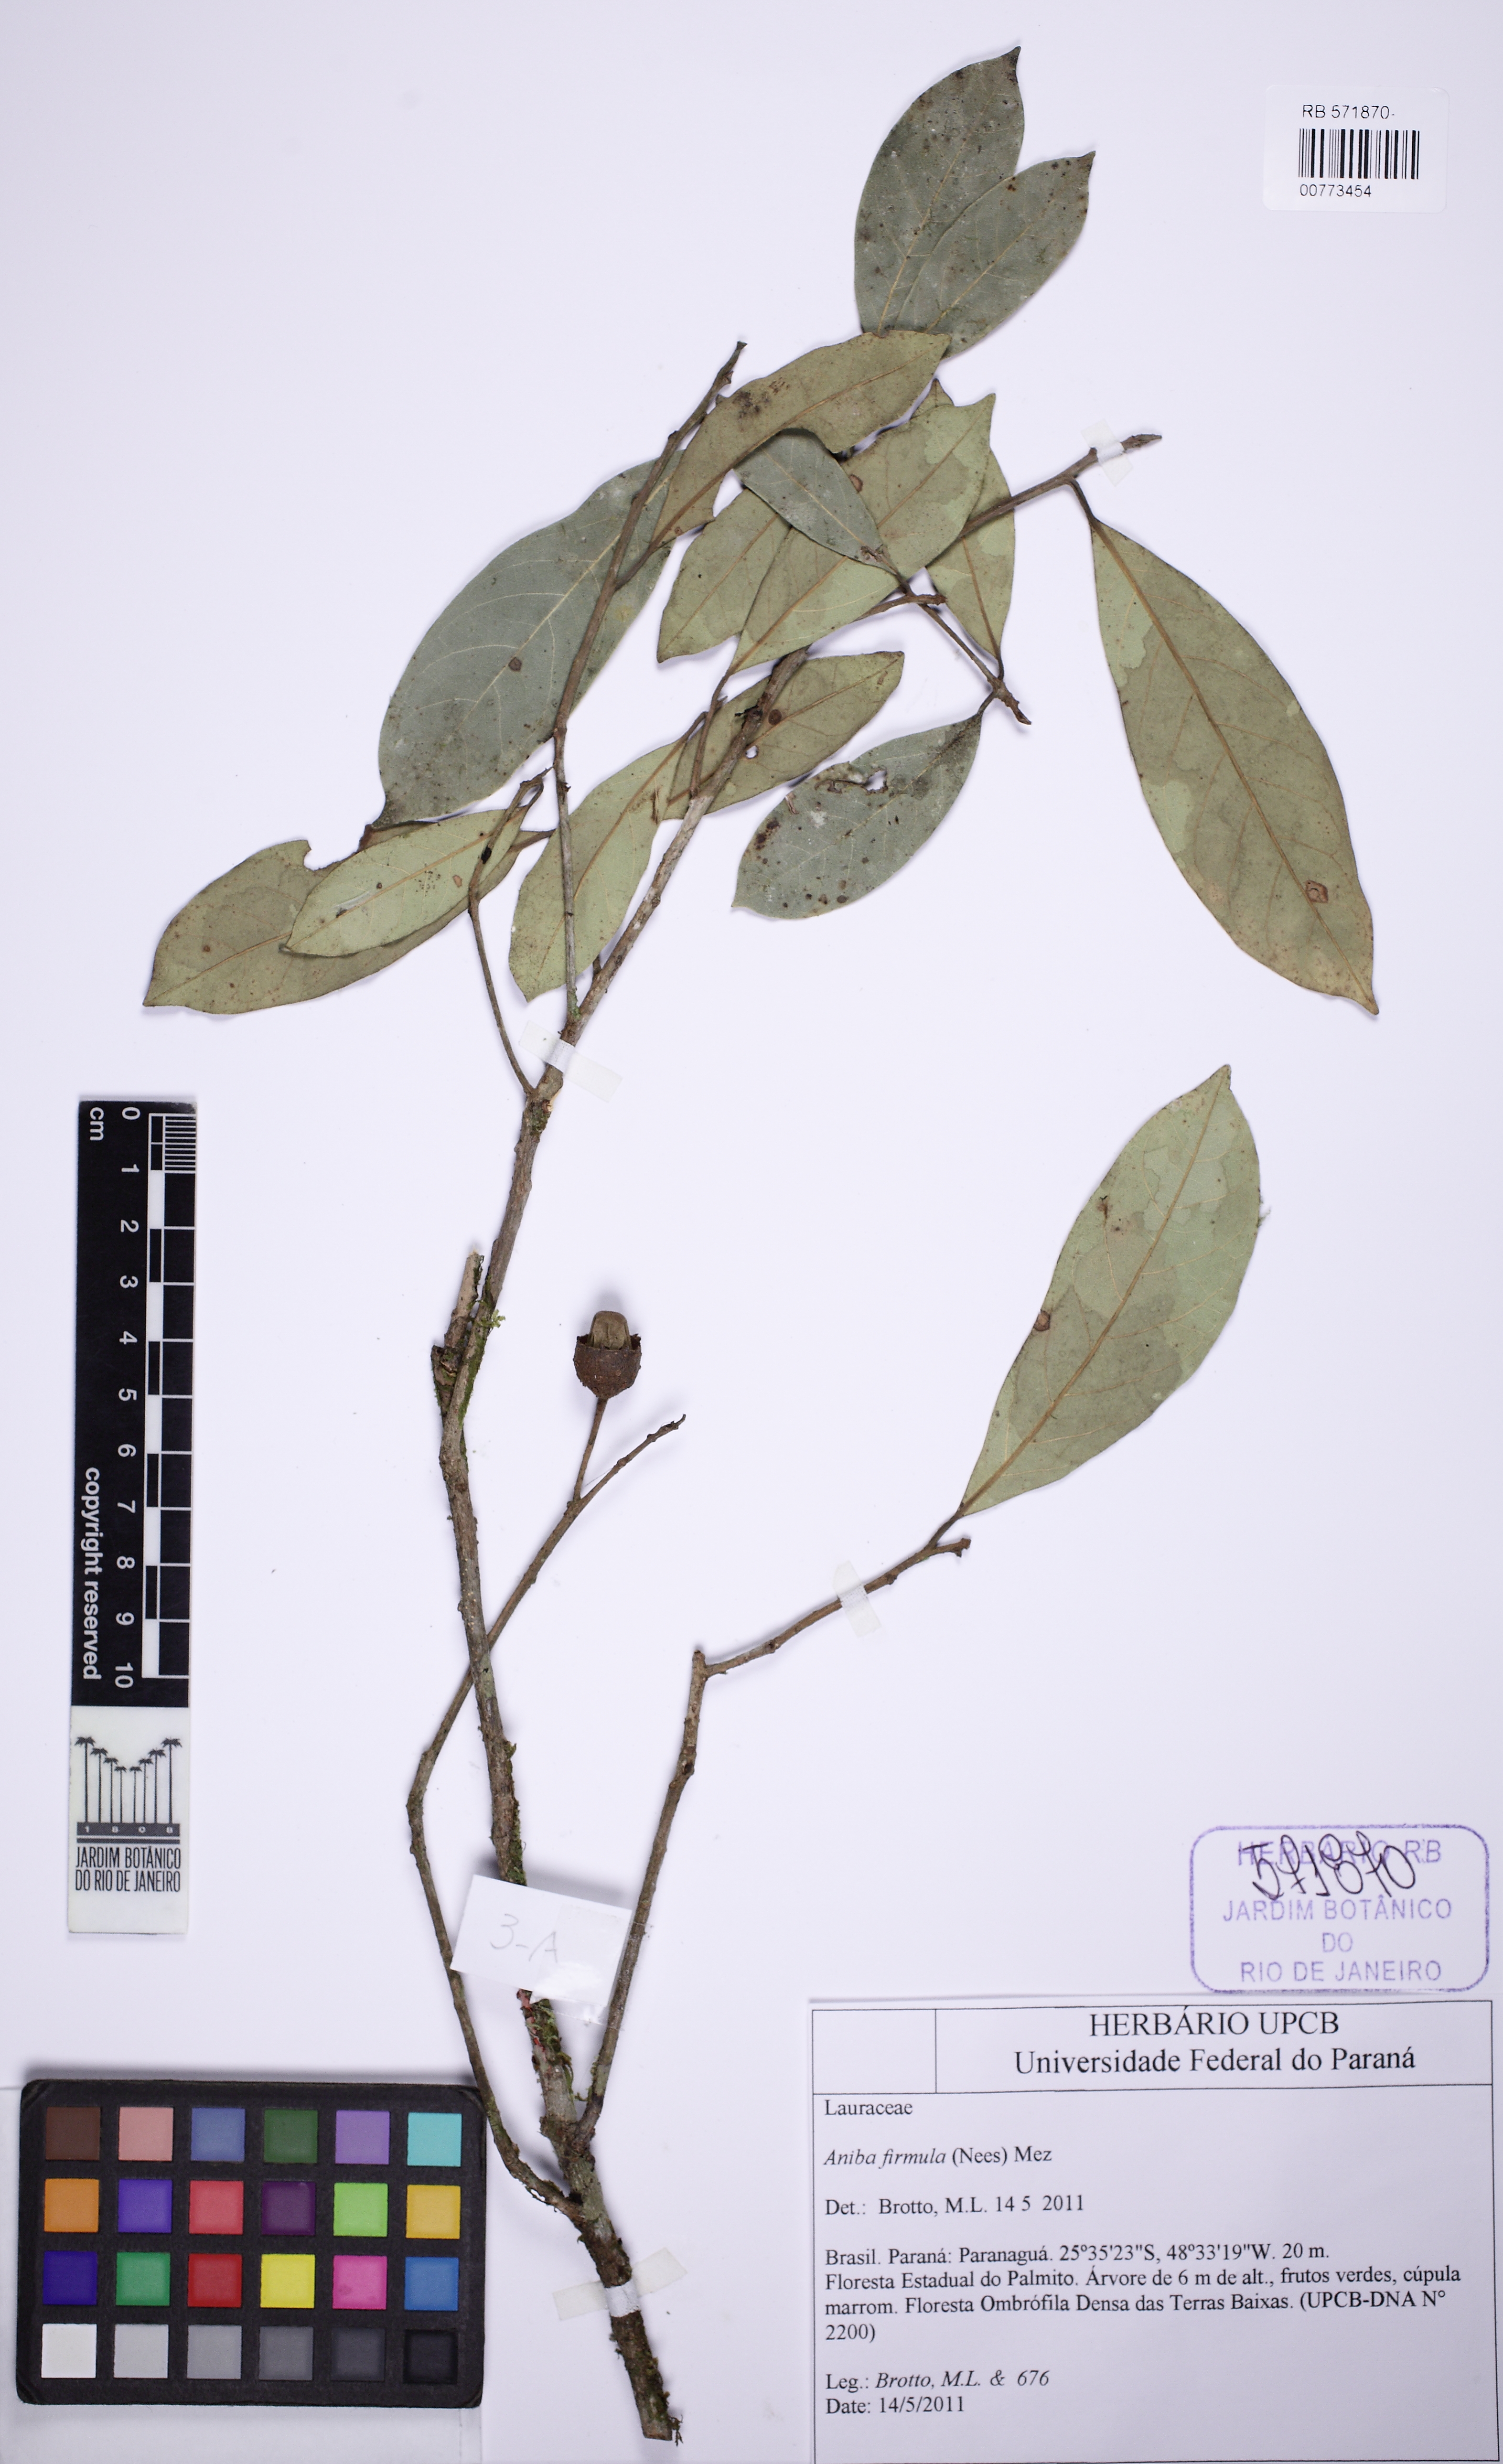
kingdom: Plantae
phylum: Tracheophyta
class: Magnoliopsida
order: Laurales
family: Lauraceae
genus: Aniba
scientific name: Aniba firmula
